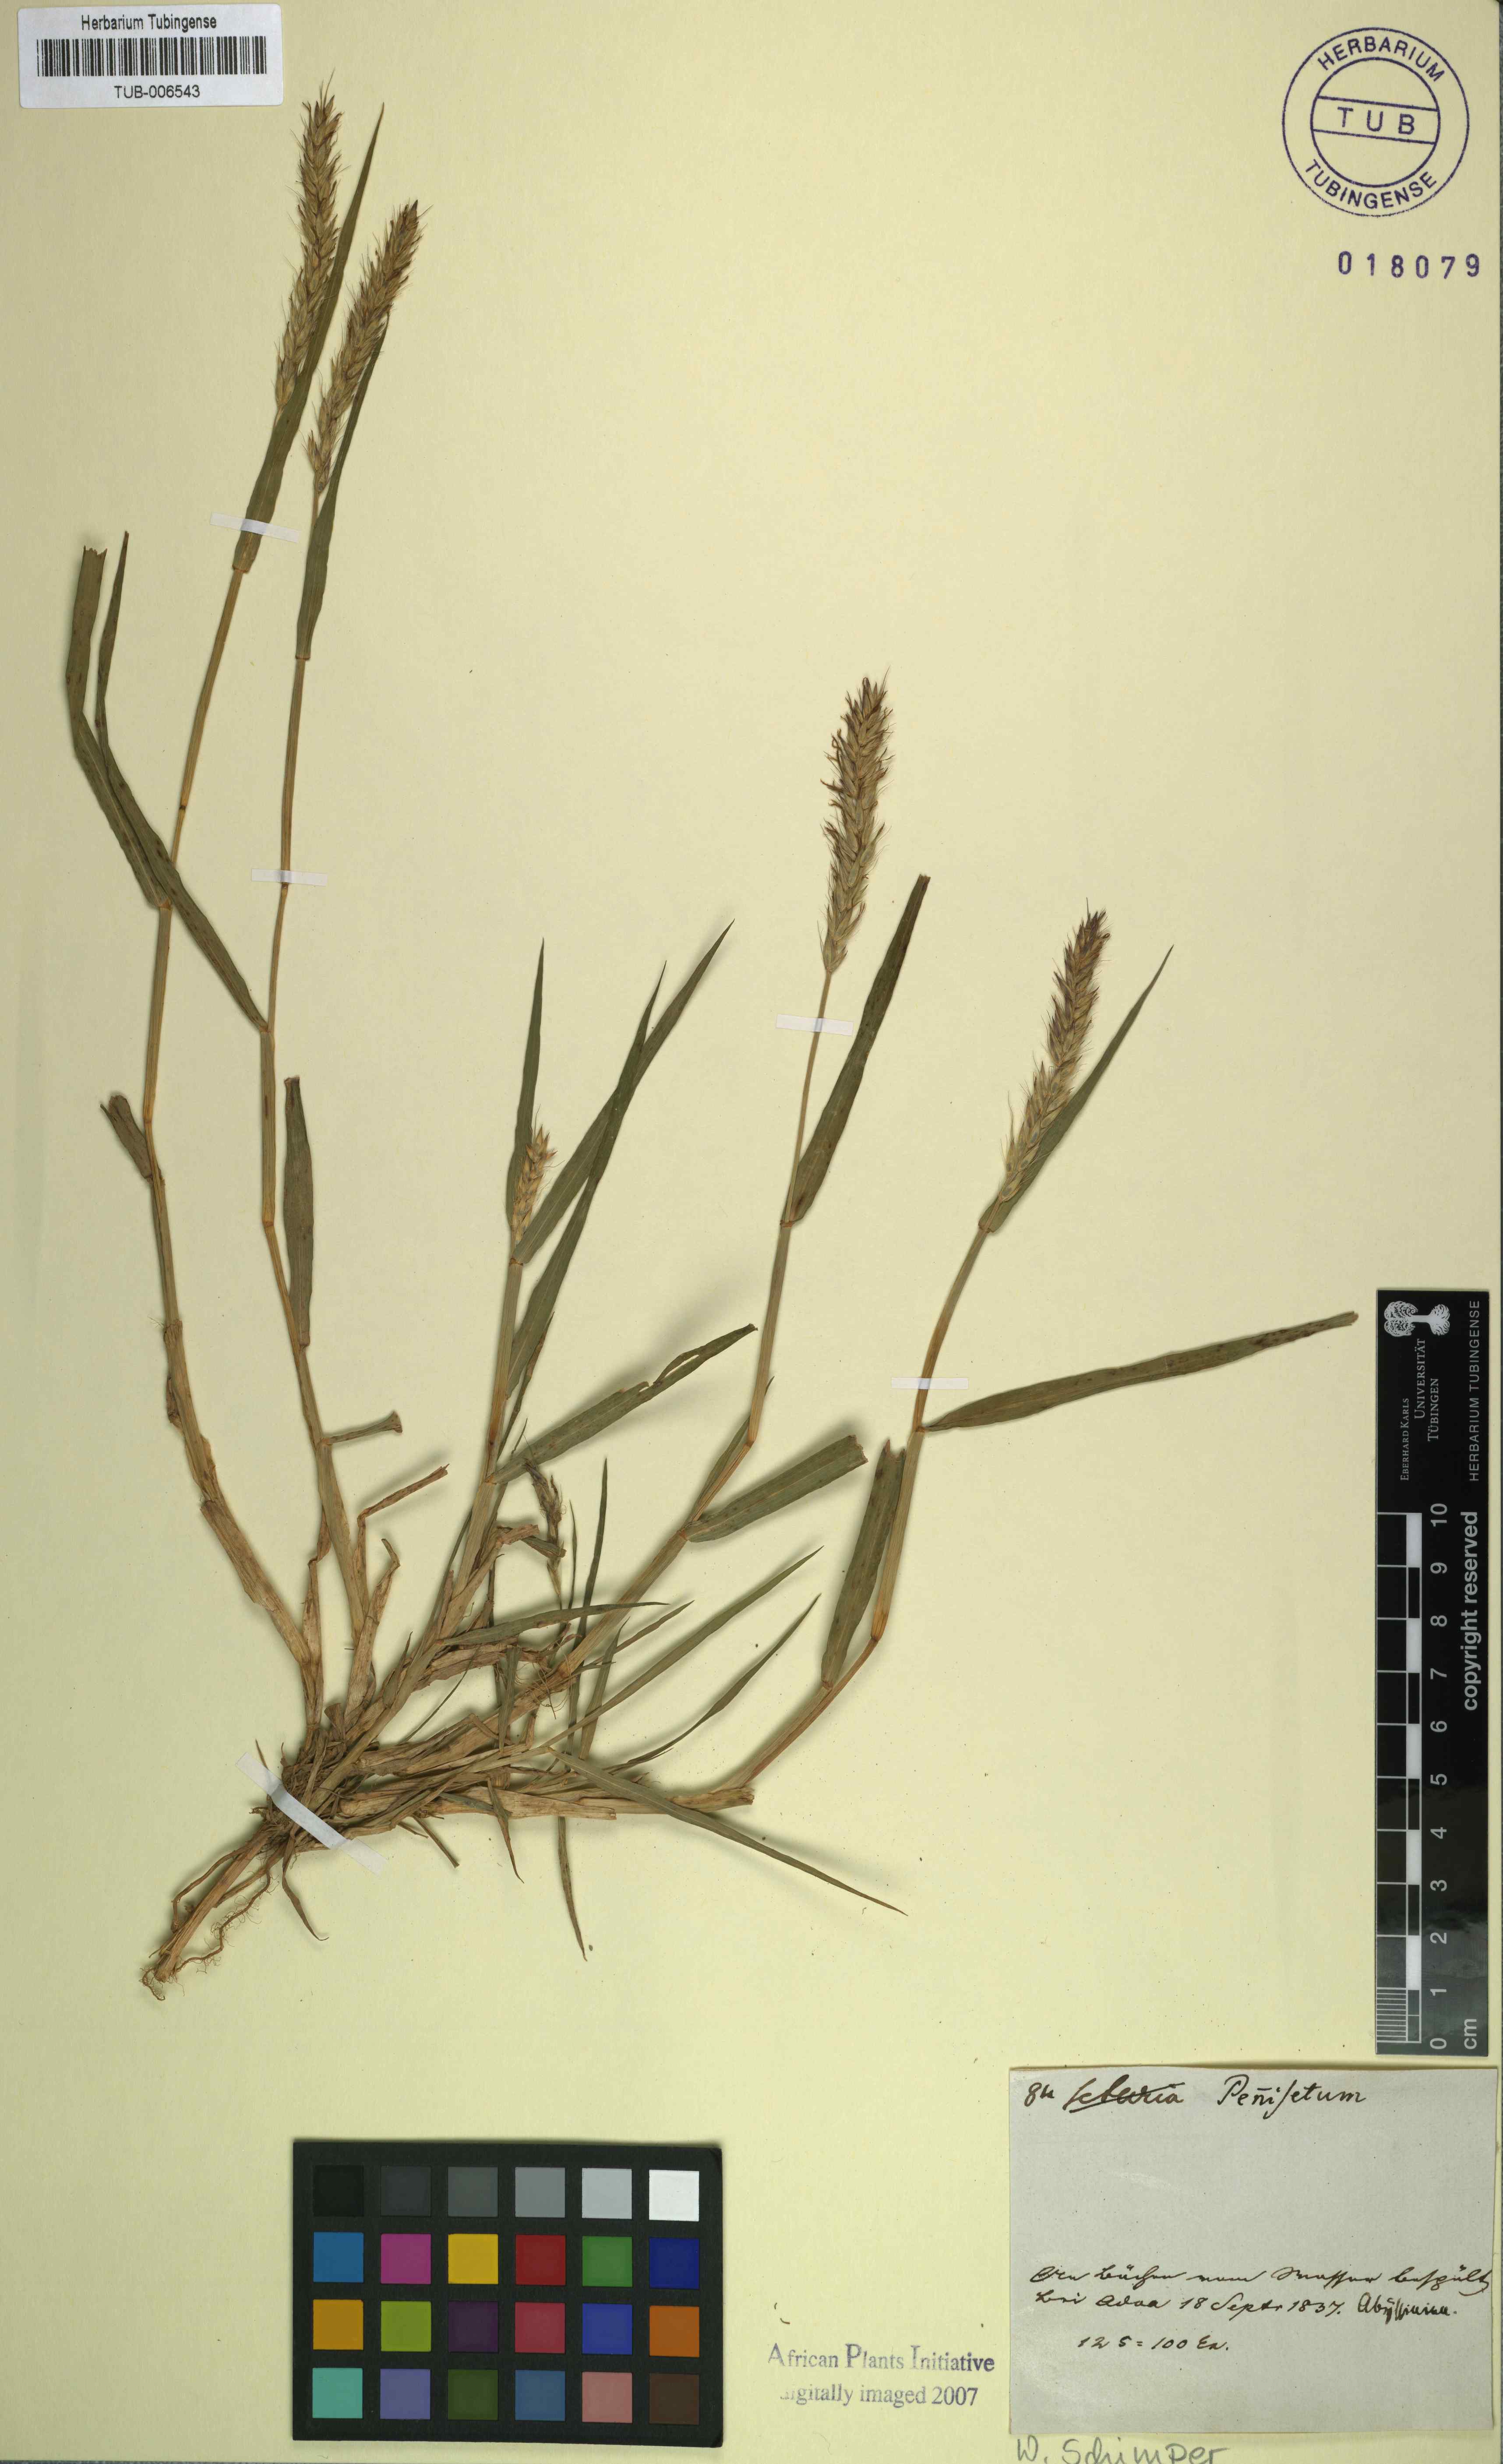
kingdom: Plantae
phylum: Tracheophyta
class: Liliopsida
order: Poales
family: Poaceae
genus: Cenchrus
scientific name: Cenchrus Pennisetum spec
